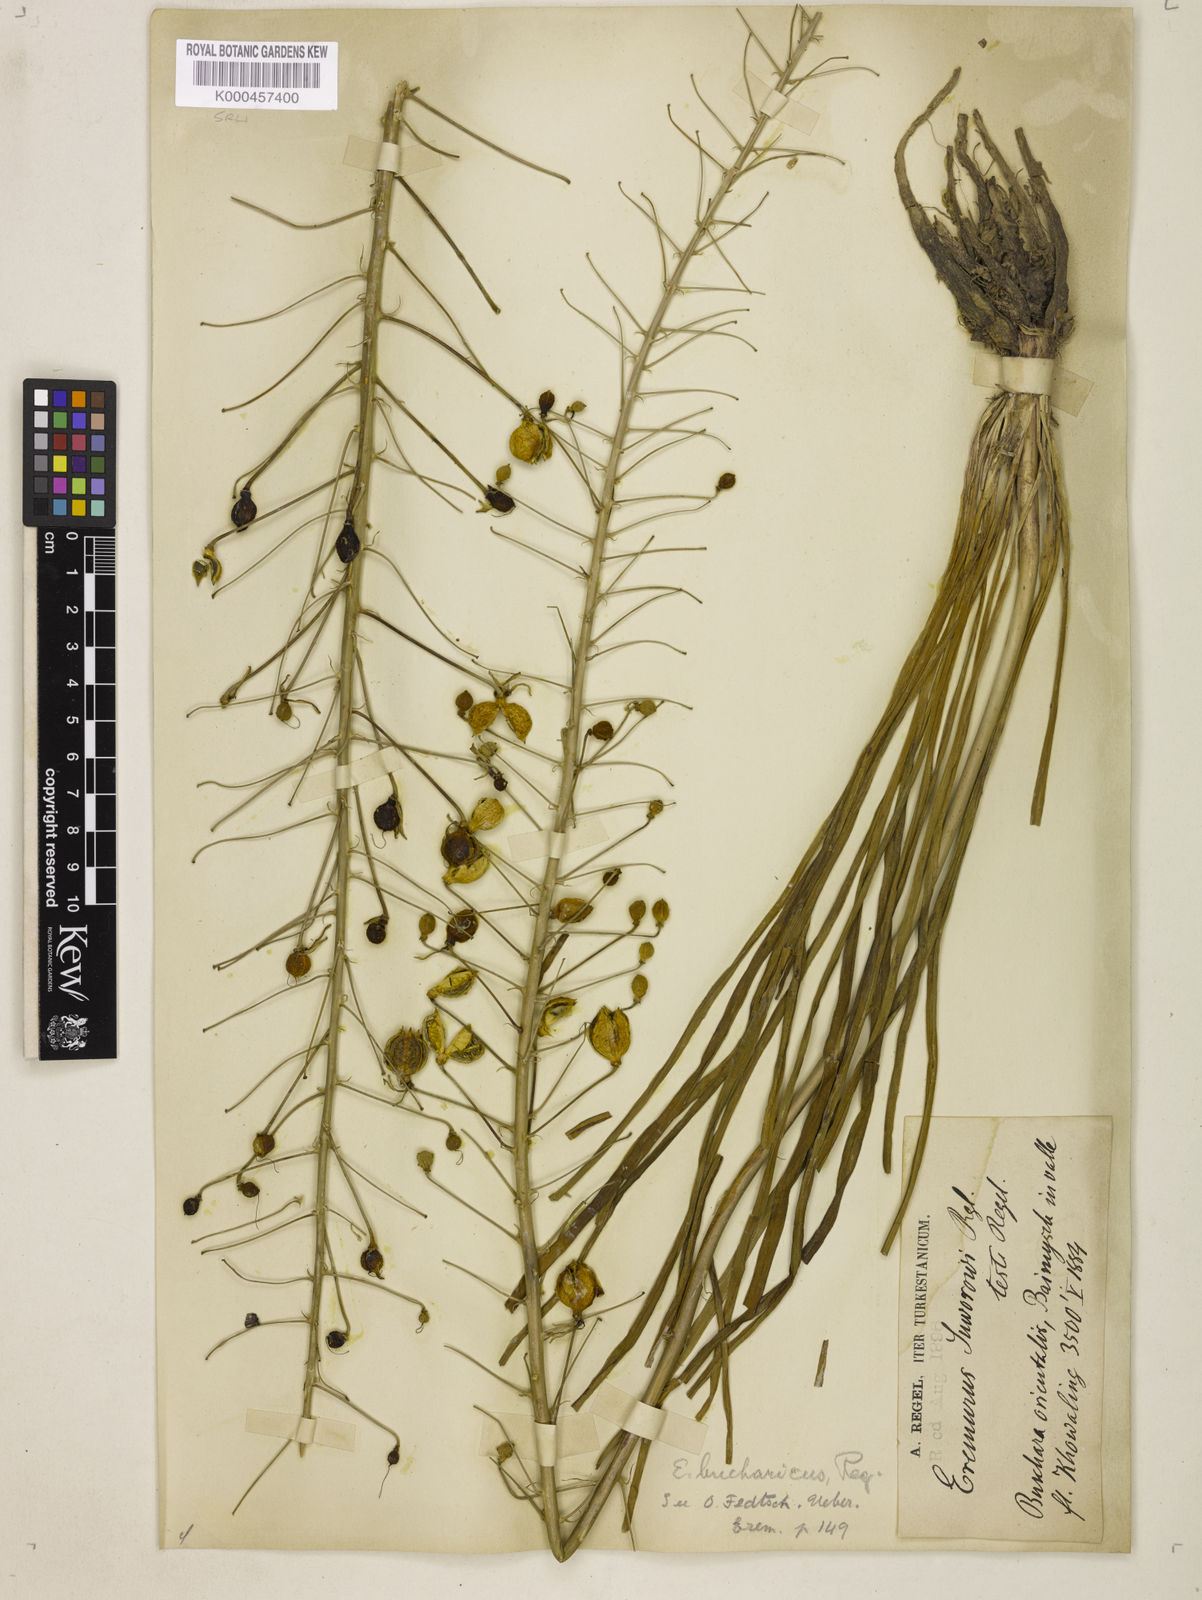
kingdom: Plantae
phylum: Tracheophyta
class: Liliopsida
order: Asparagales
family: Asphodelaceae
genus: Eremurus
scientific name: Eremurus bucharicus
